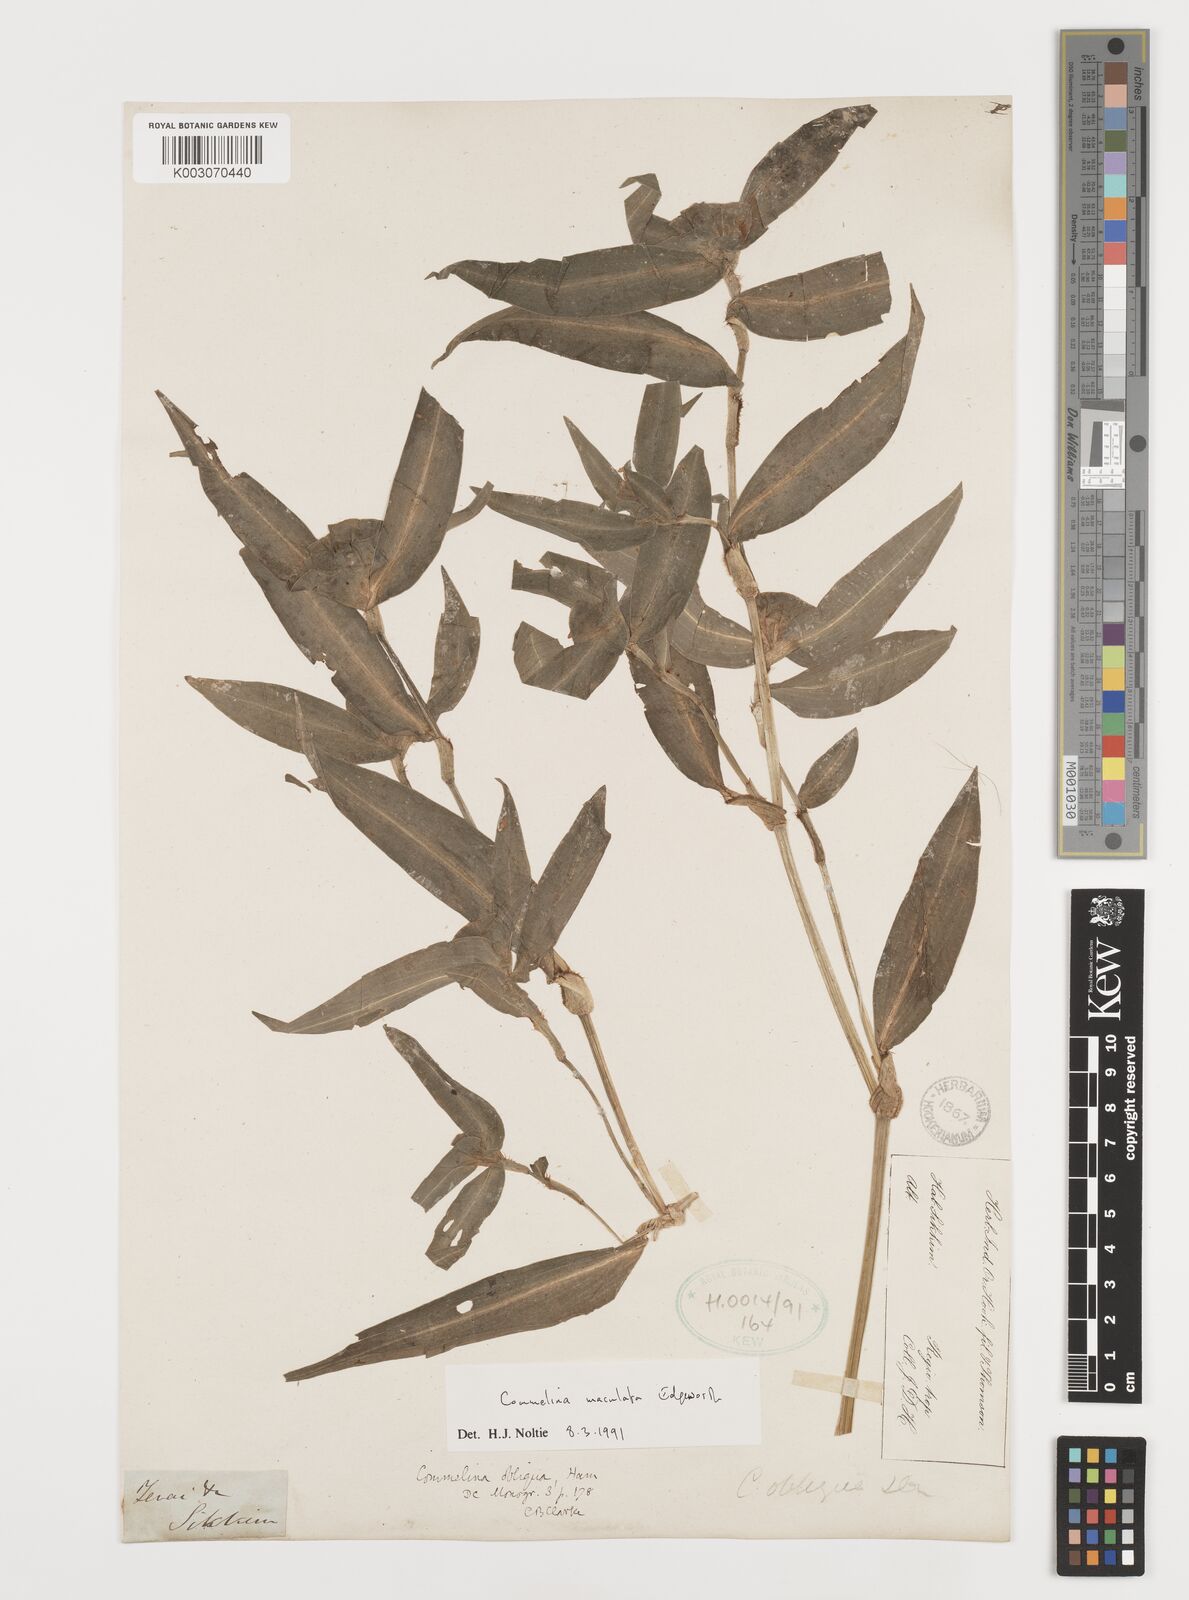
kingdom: Plantae
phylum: Tracheophyta
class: Liliopsida
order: Commelinales
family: Commelinaceae
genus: Commelina
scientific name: Commelina maculata
